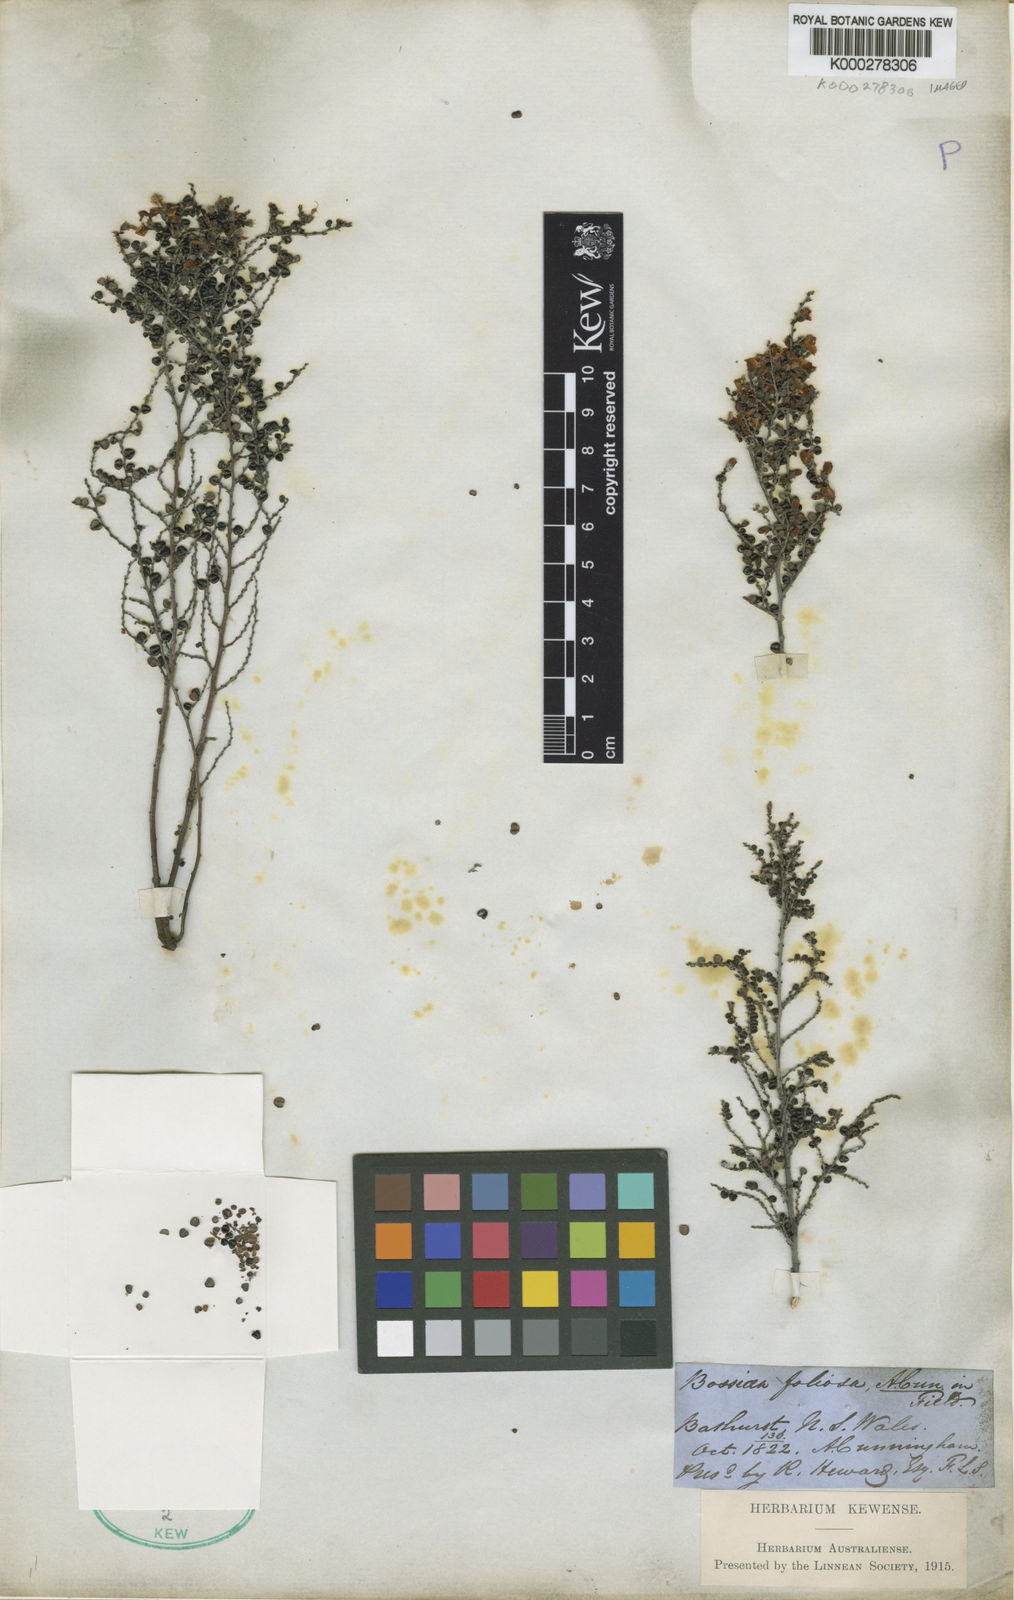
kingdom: Plantae
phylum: Tracheophyta
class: Magnoliopsida
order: Fabales
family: Fabaceae
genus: Bossiaea
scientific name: Bossiaea foliosa
